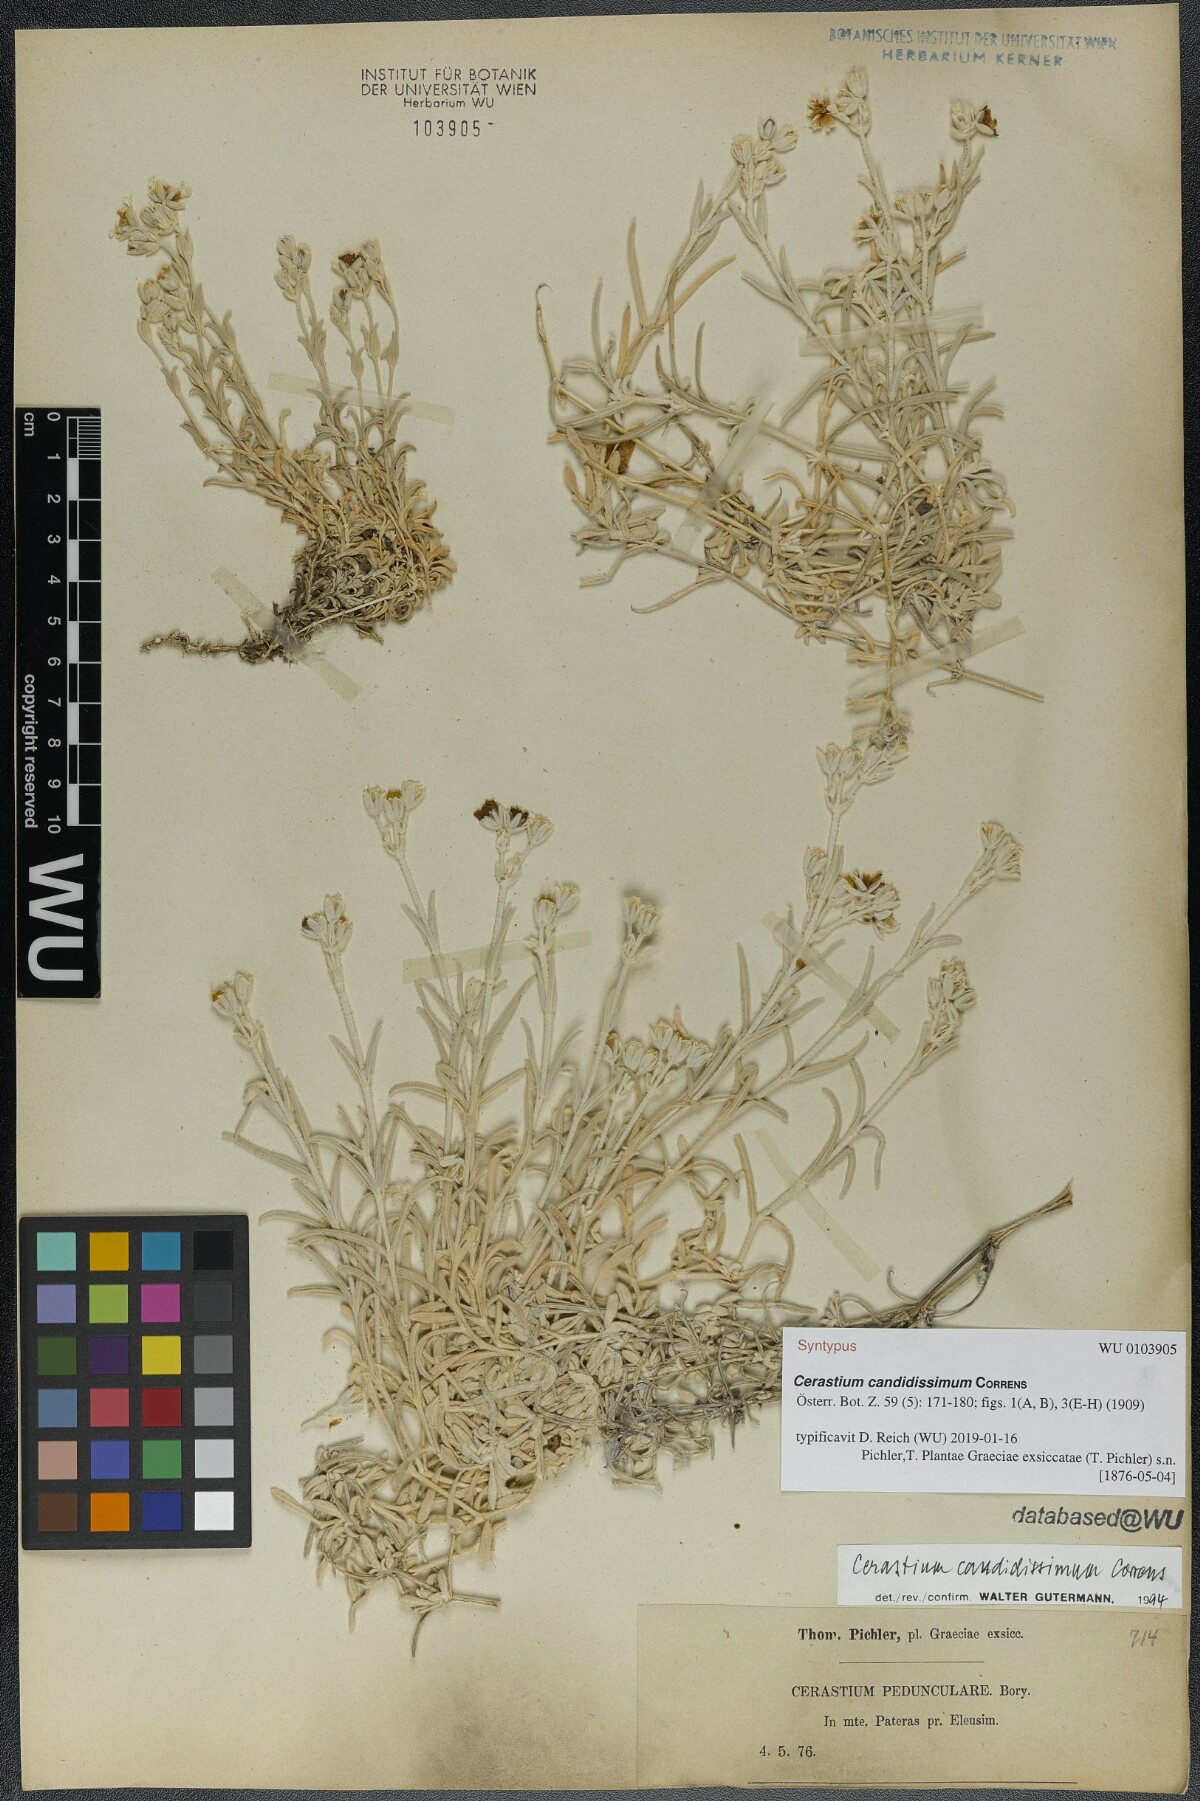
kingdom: Plantae
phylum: Tracheophyta
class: Magnoliopsida
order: Caryophyllales
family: Caryophyllaceae
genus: Cerastium
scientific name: Cerastium candidissimum
